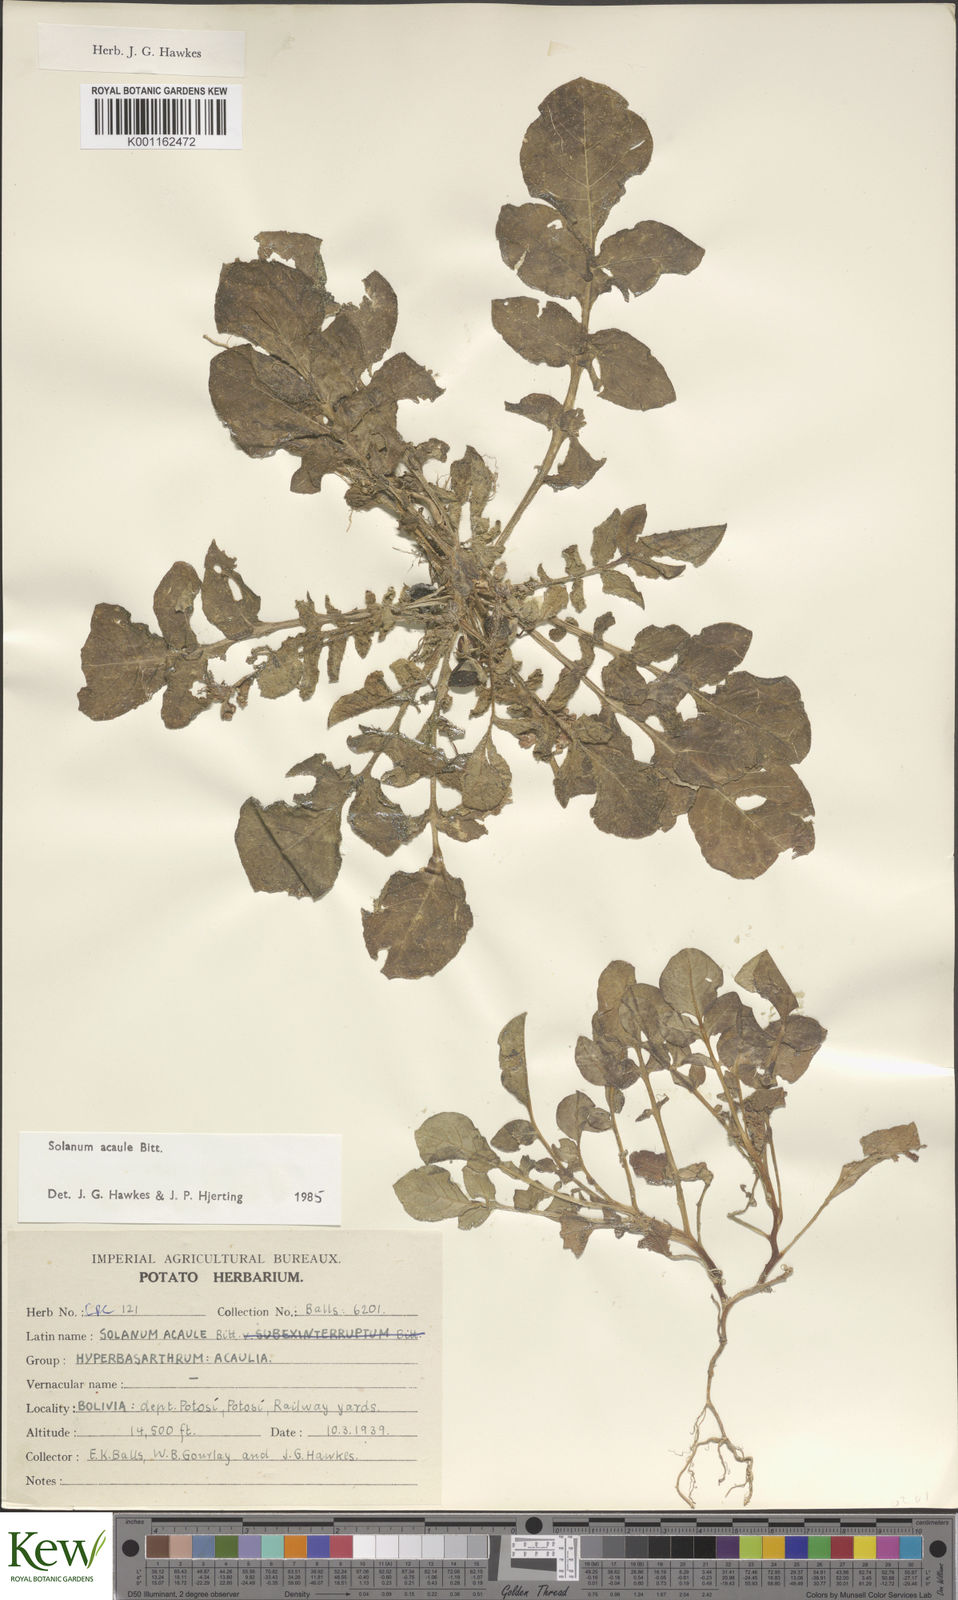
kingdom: Plantae
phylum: Tracheophyta
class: Magnoliopsida
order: Solanales
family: Solanaceae
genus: Solanum
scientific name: Solanum acaule
